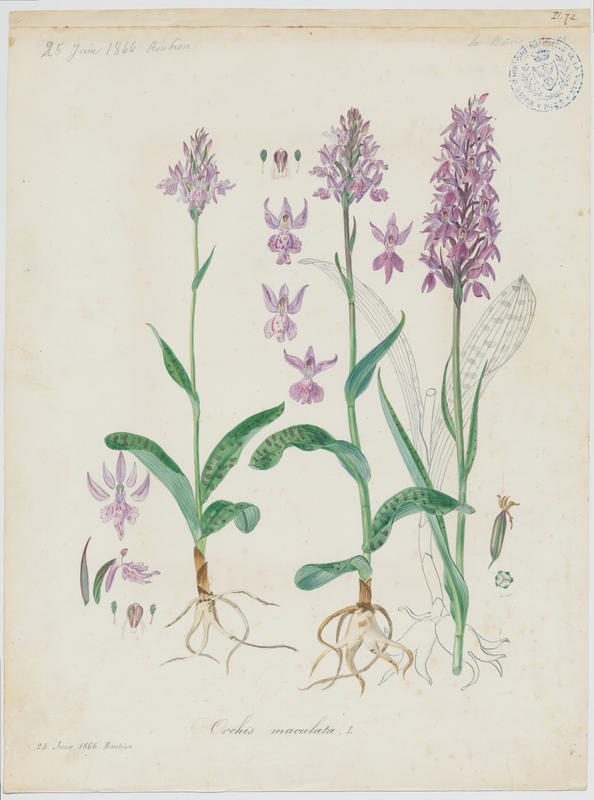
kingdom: Plantae
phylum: Tracheophyta
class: Liliopsida
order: Asparagales
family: Orchidaceae
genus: Dactylorhiza
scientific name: Dactylorhiza maculata
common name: Heath spotted-orchid
